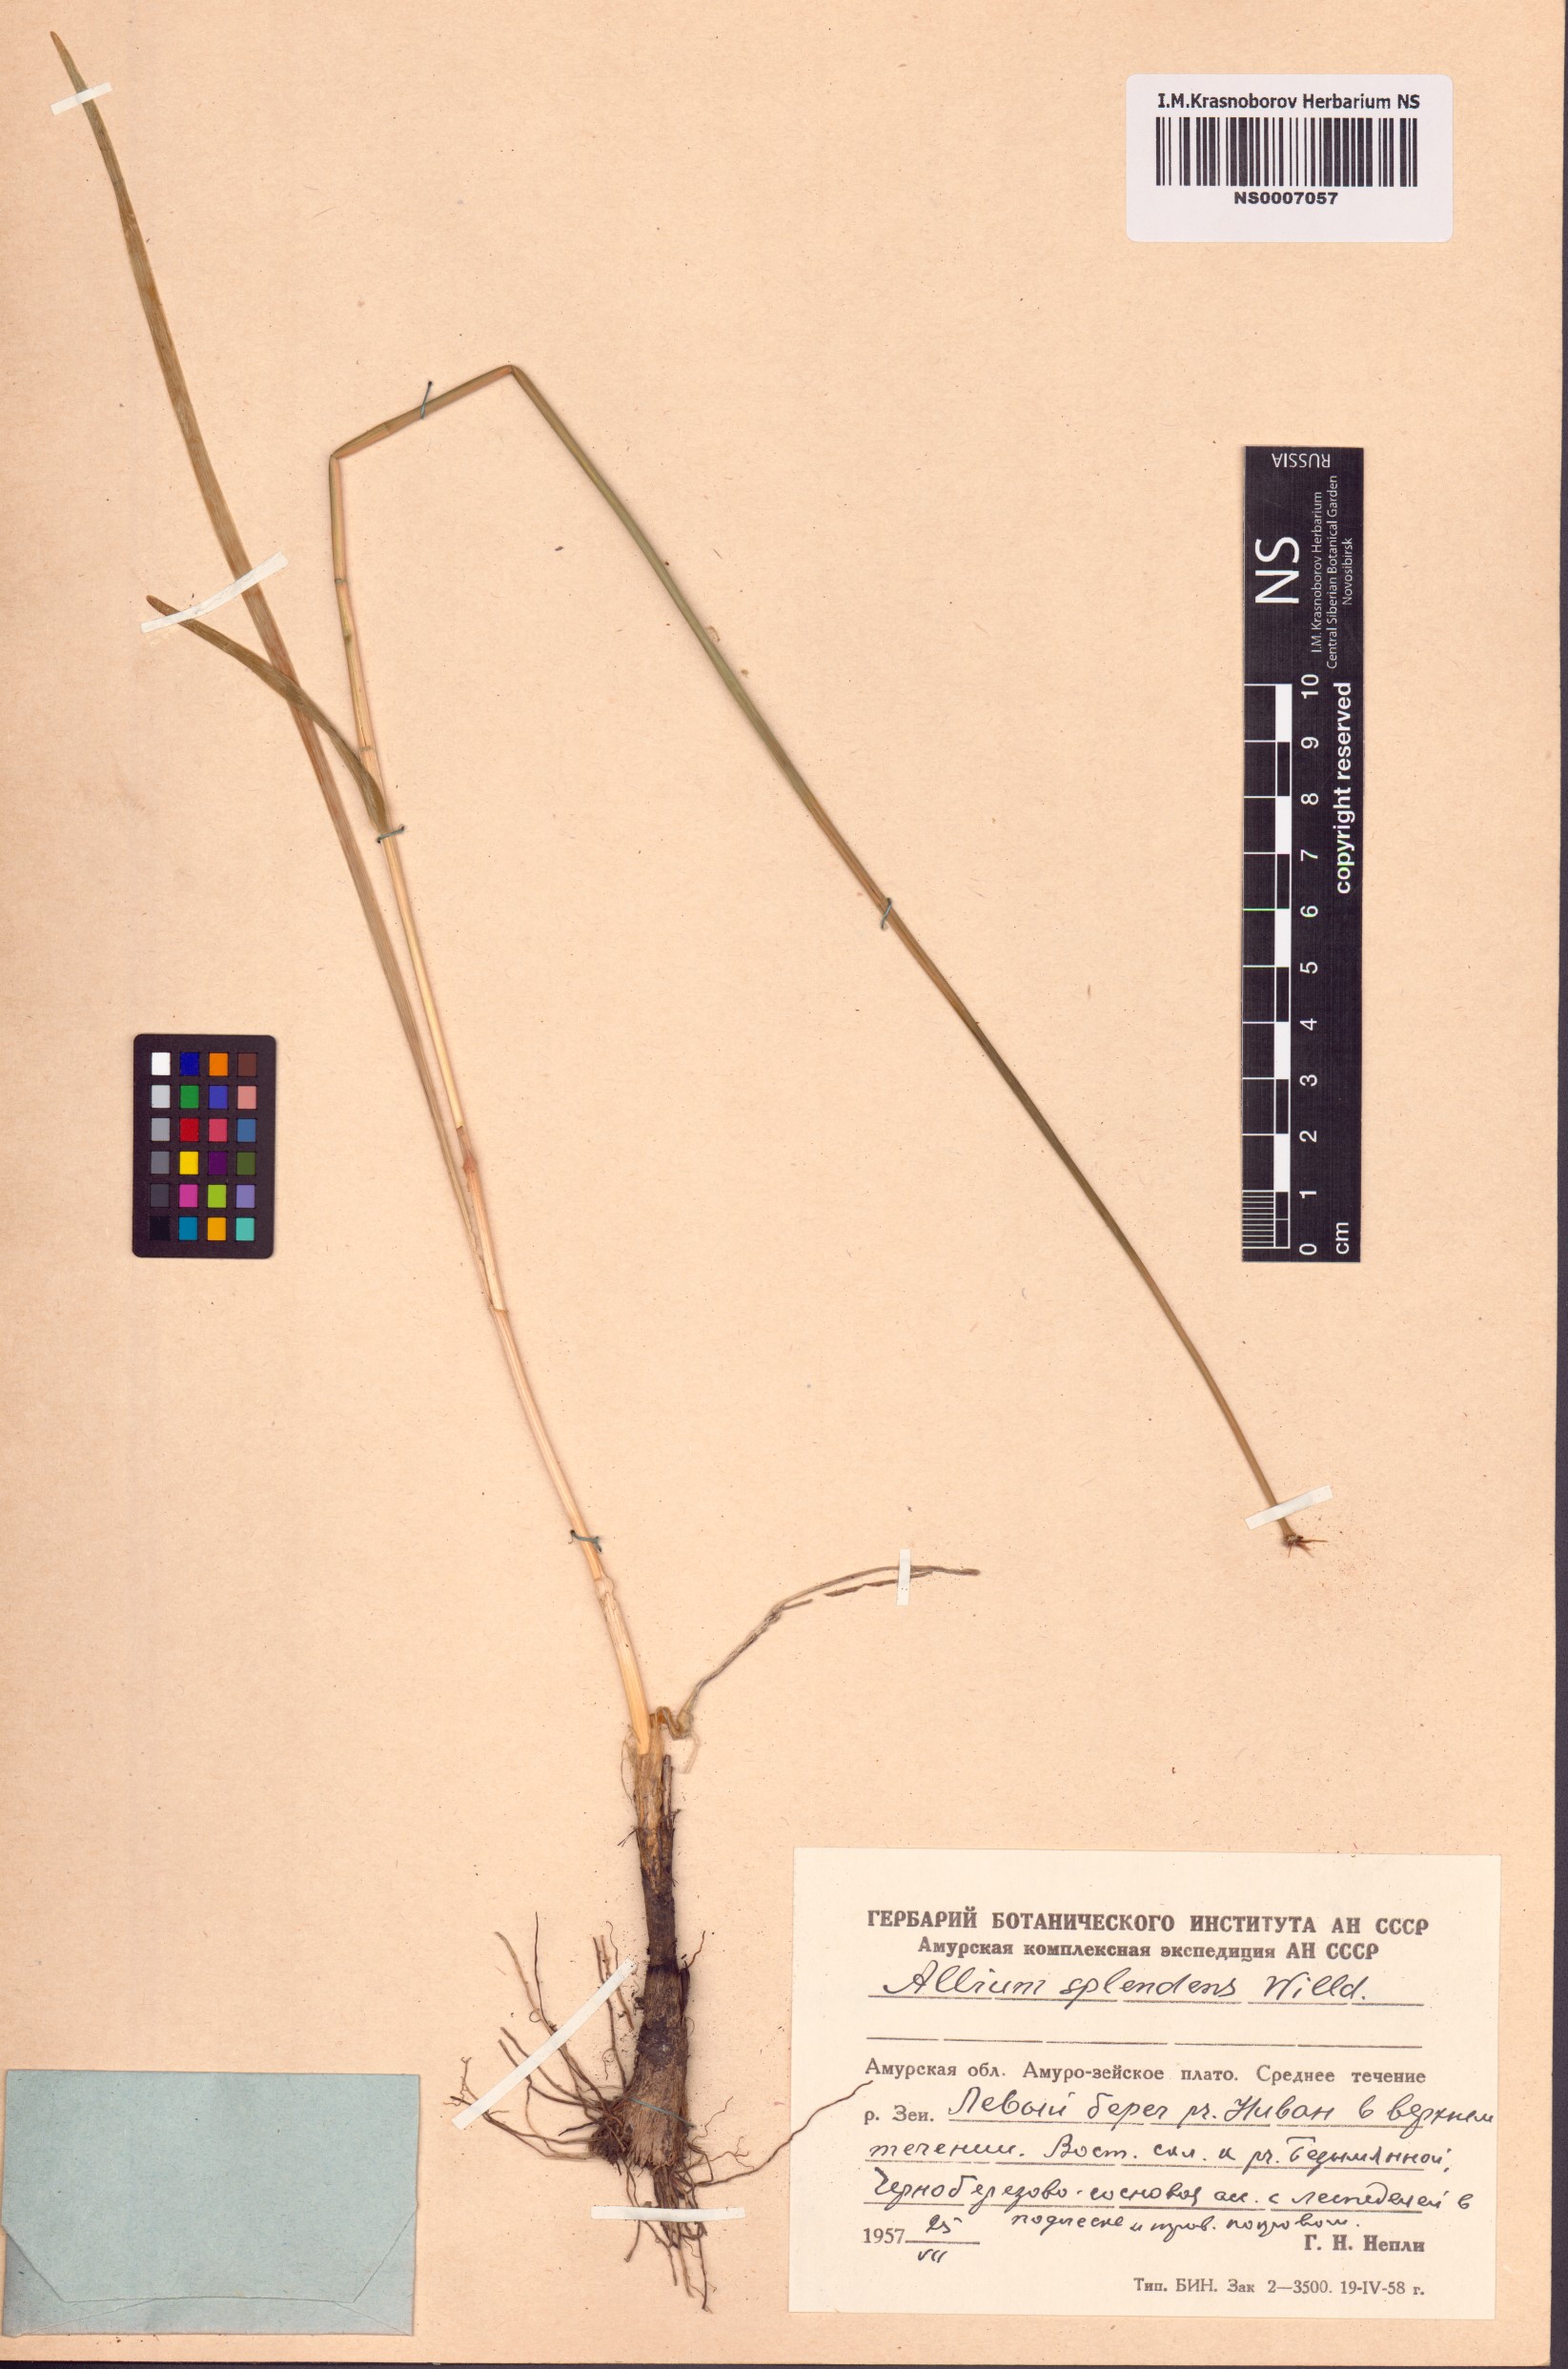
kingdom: Plantae
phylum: Tracheophyta
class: Liliopsida
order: Asparagales
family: Amaryllidaceae
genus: Allium
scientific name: Allium splendens
